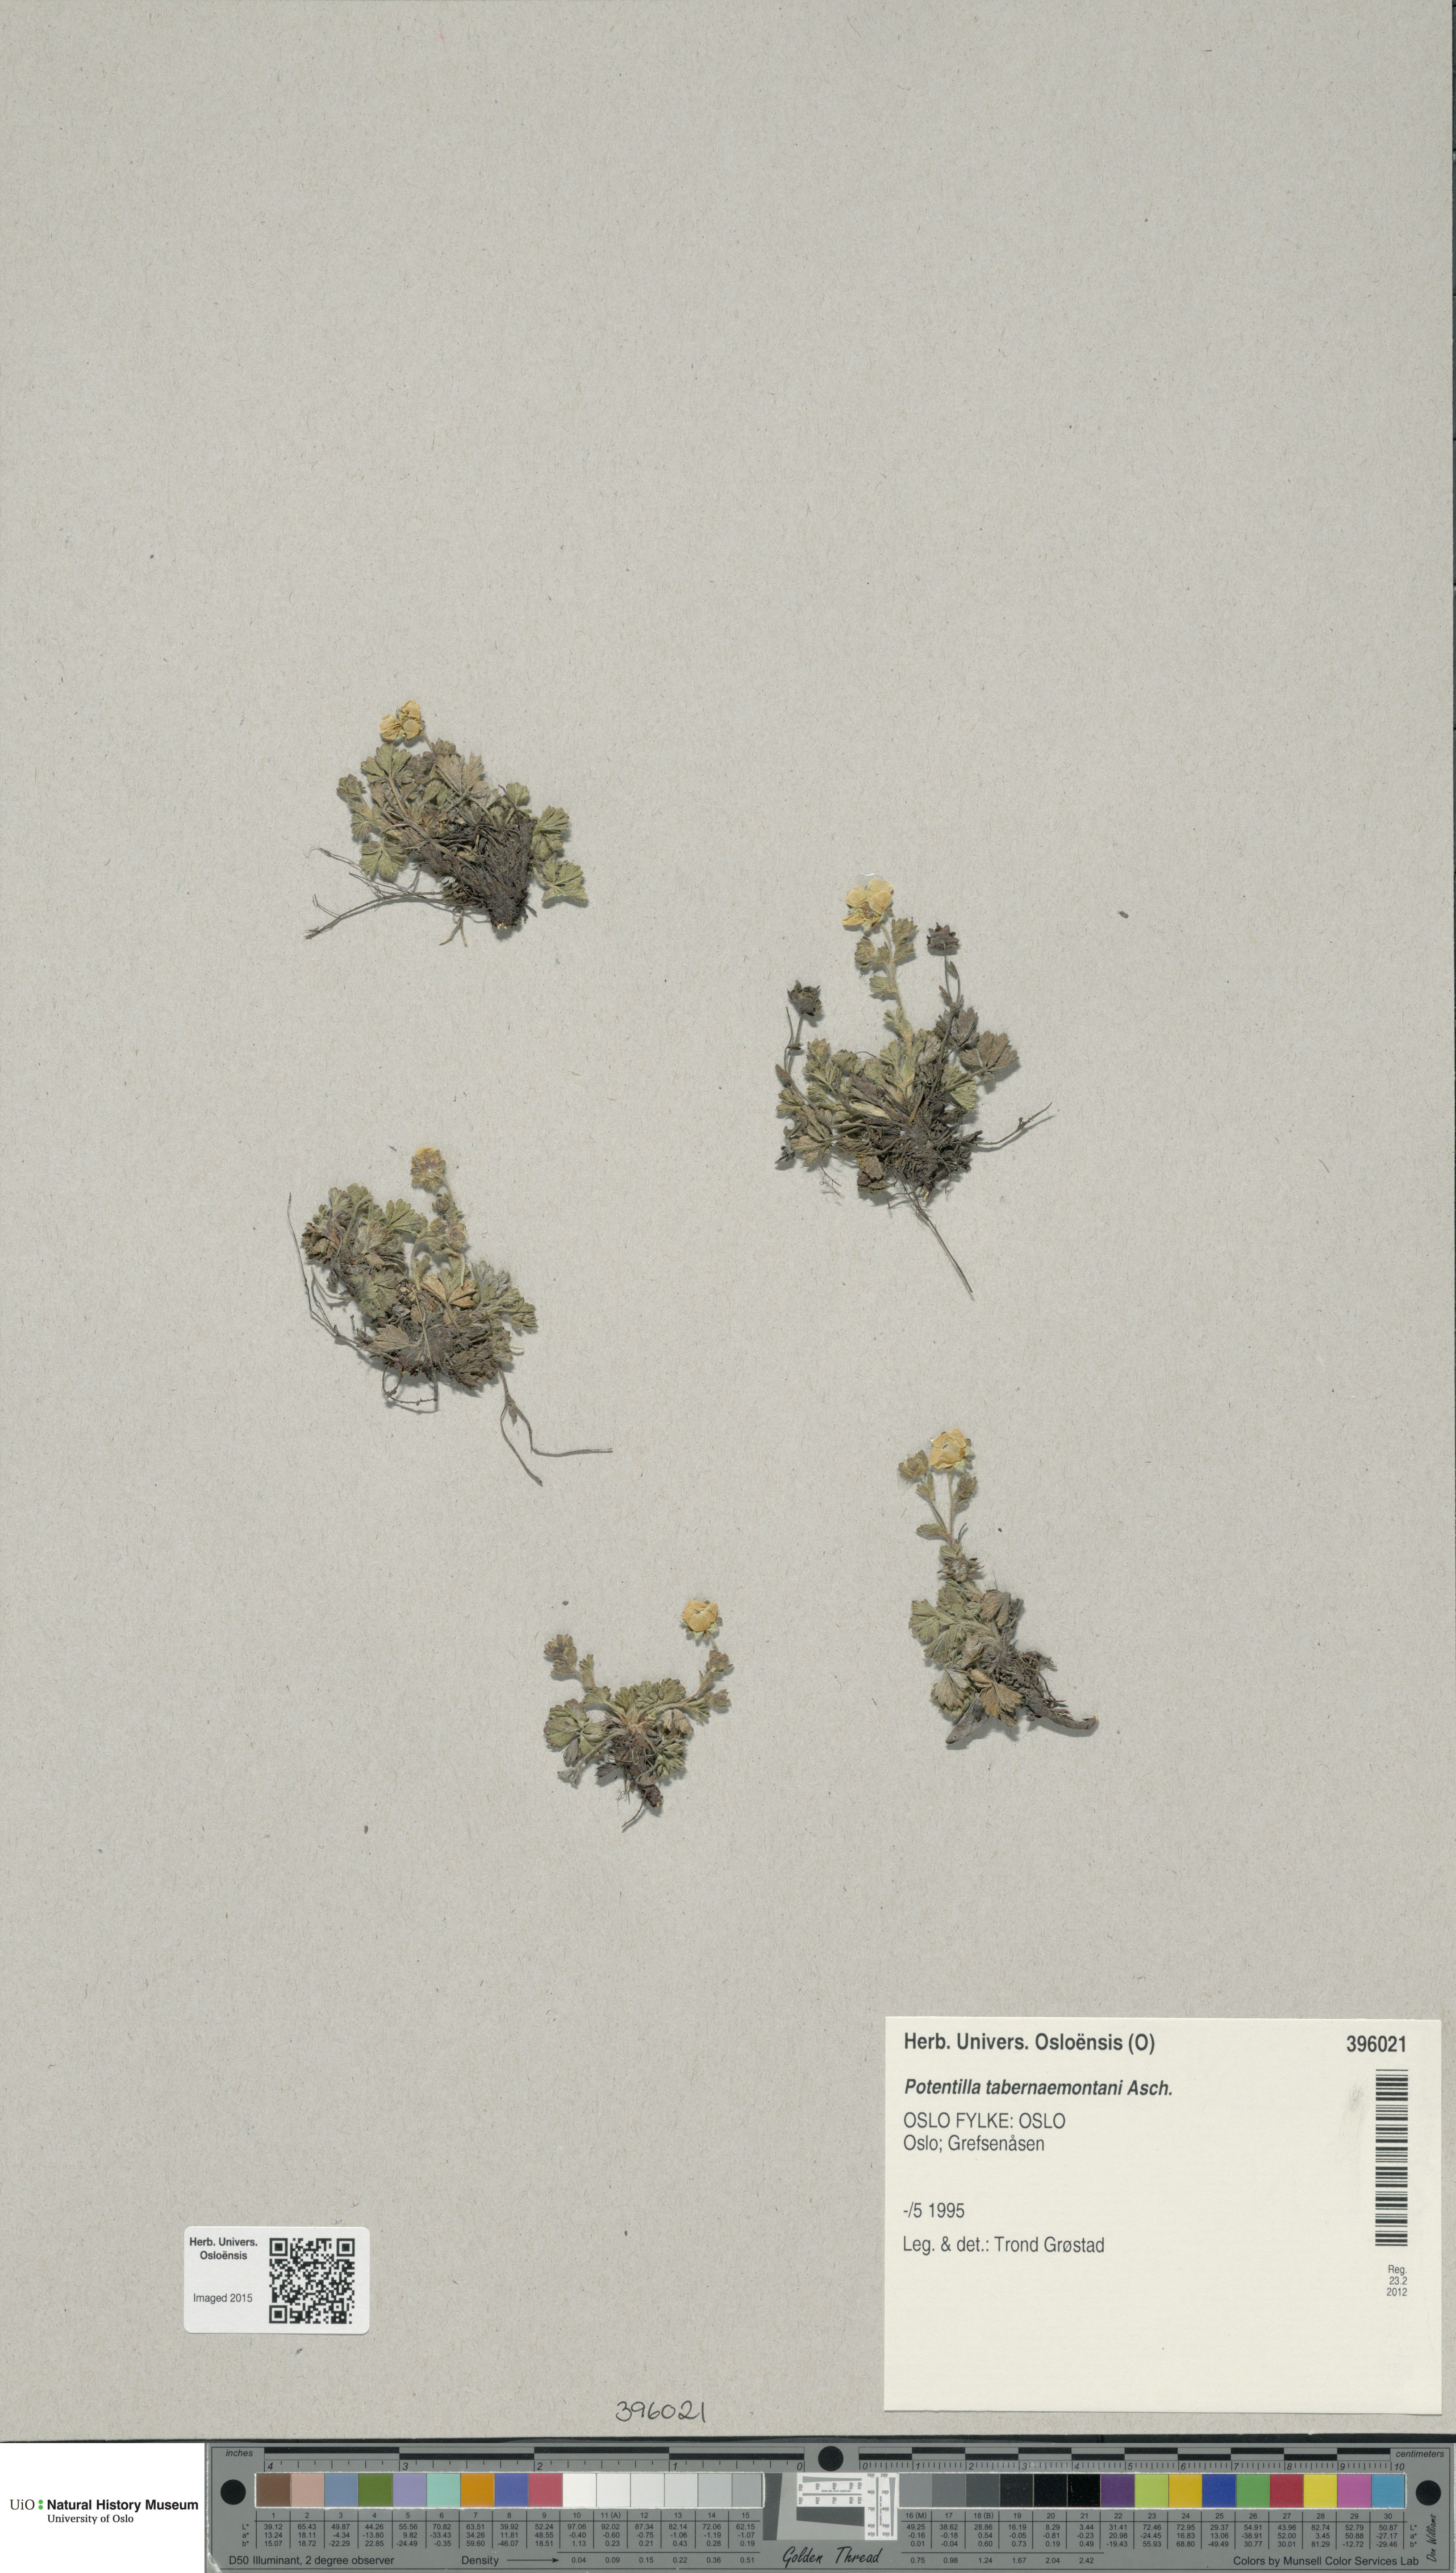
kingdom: Plantae
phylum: Tracheophyta
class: Magnoliopsida
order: Rosales
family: Rosaceae
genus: Potentilla
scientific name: Potentilla verna
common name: Spring cinquefoil
